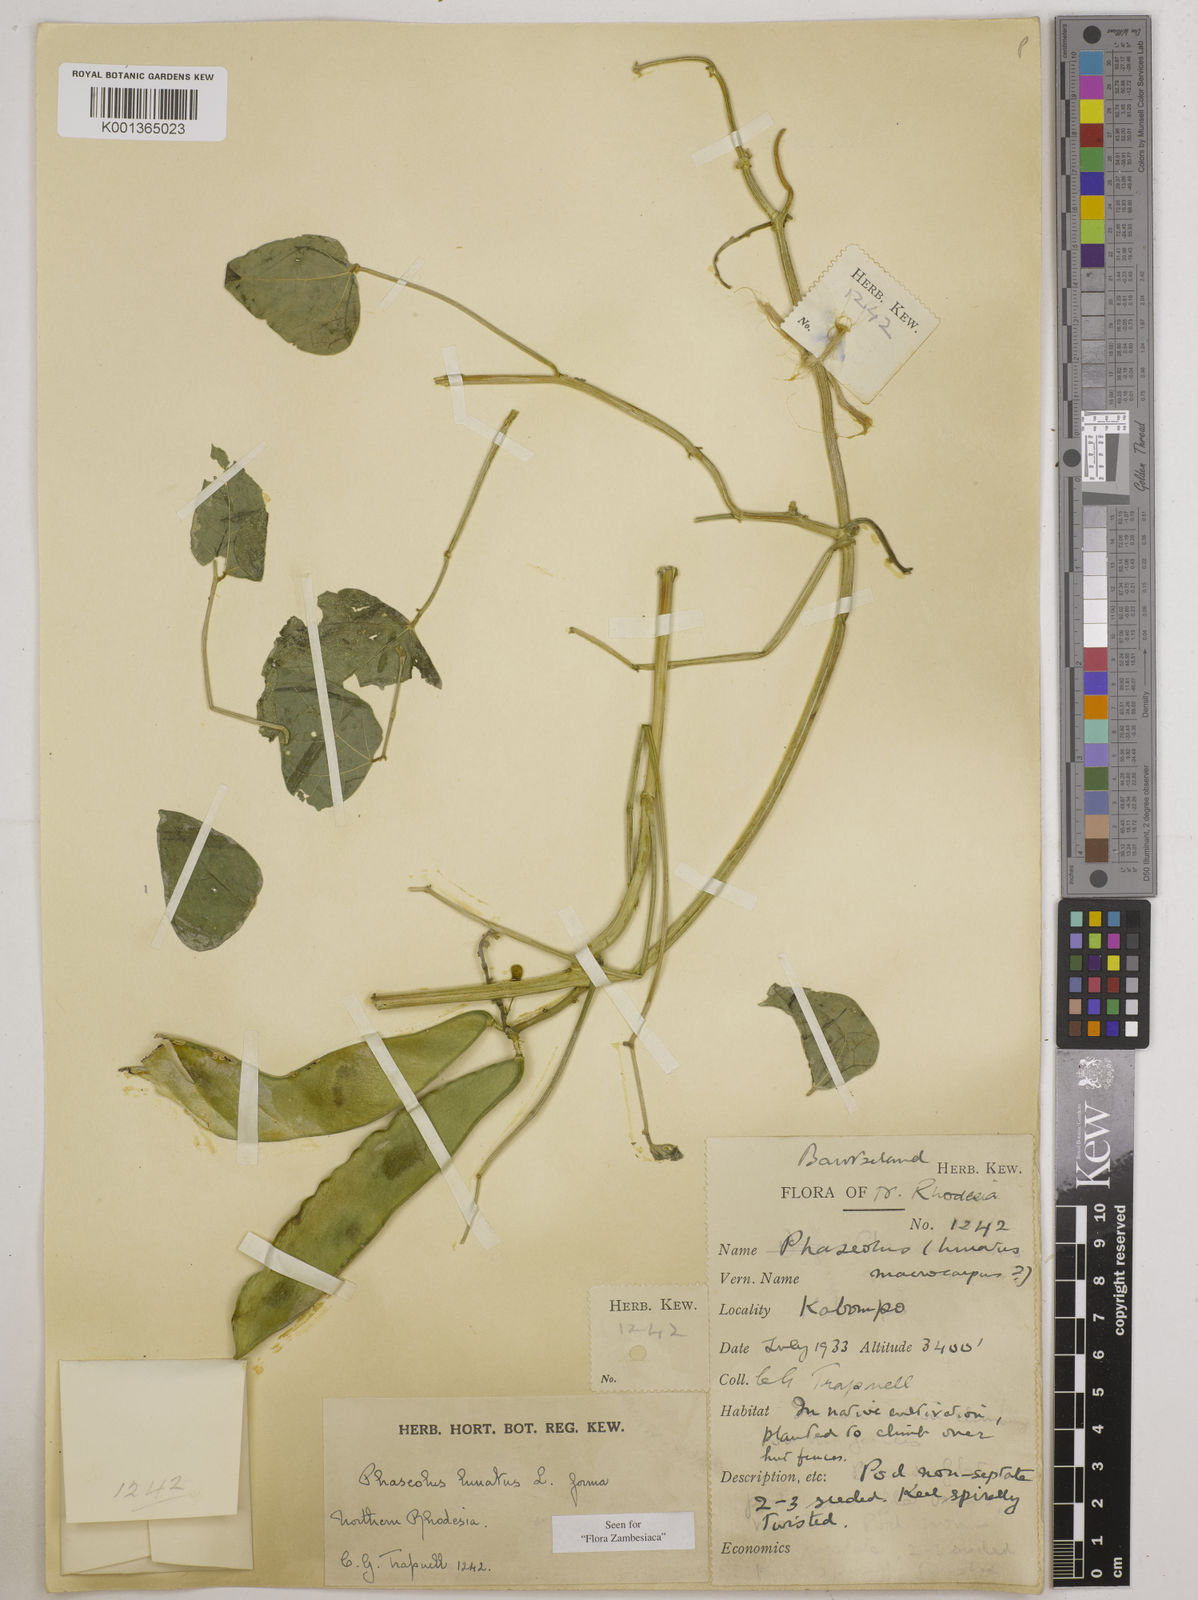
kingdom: Plantae
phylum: Tracheophyta
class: Magnoliopsida
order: Fabales
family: Fabaceae
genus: Phaseolus
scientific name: Phaseolus lunatus
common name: Sieva bean
